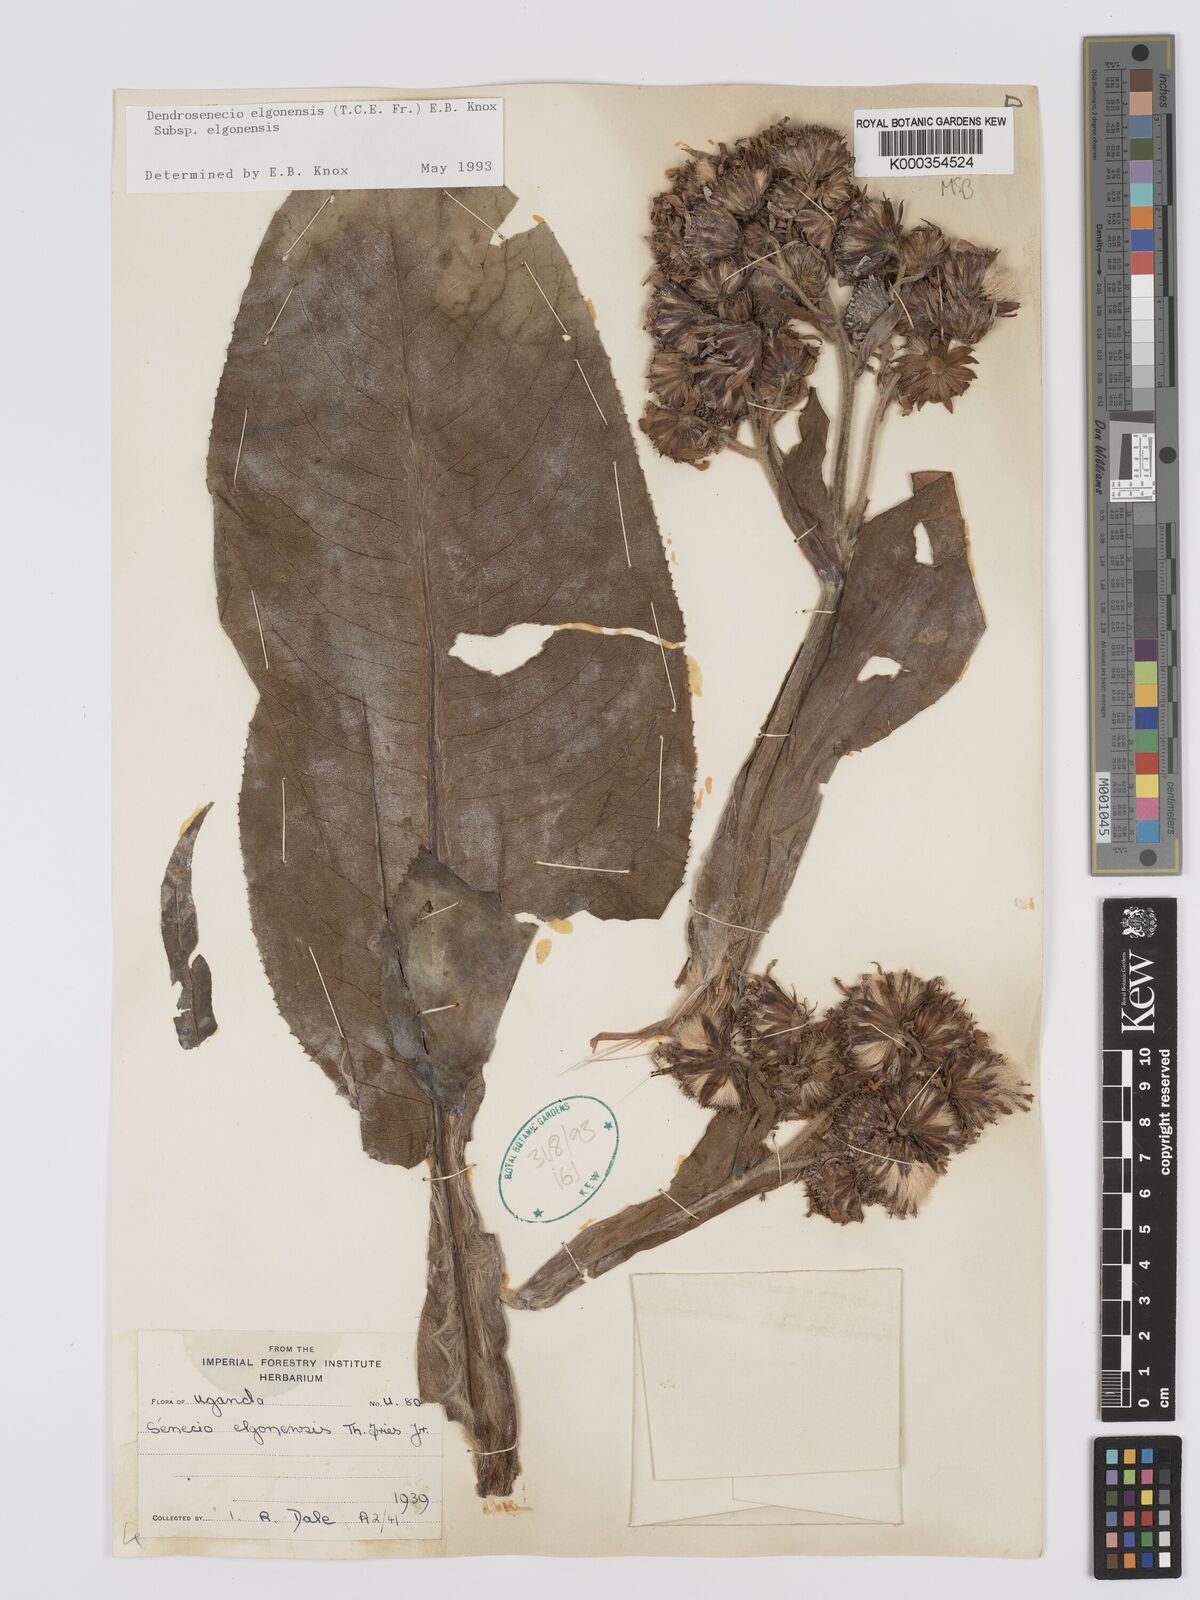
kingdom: Plantae
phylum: Tracheophyta
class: Magnoliopsida
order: Asterales
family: Asteraceae
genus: Dendrosenecio
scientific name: Dendrosenecio elgonensis
